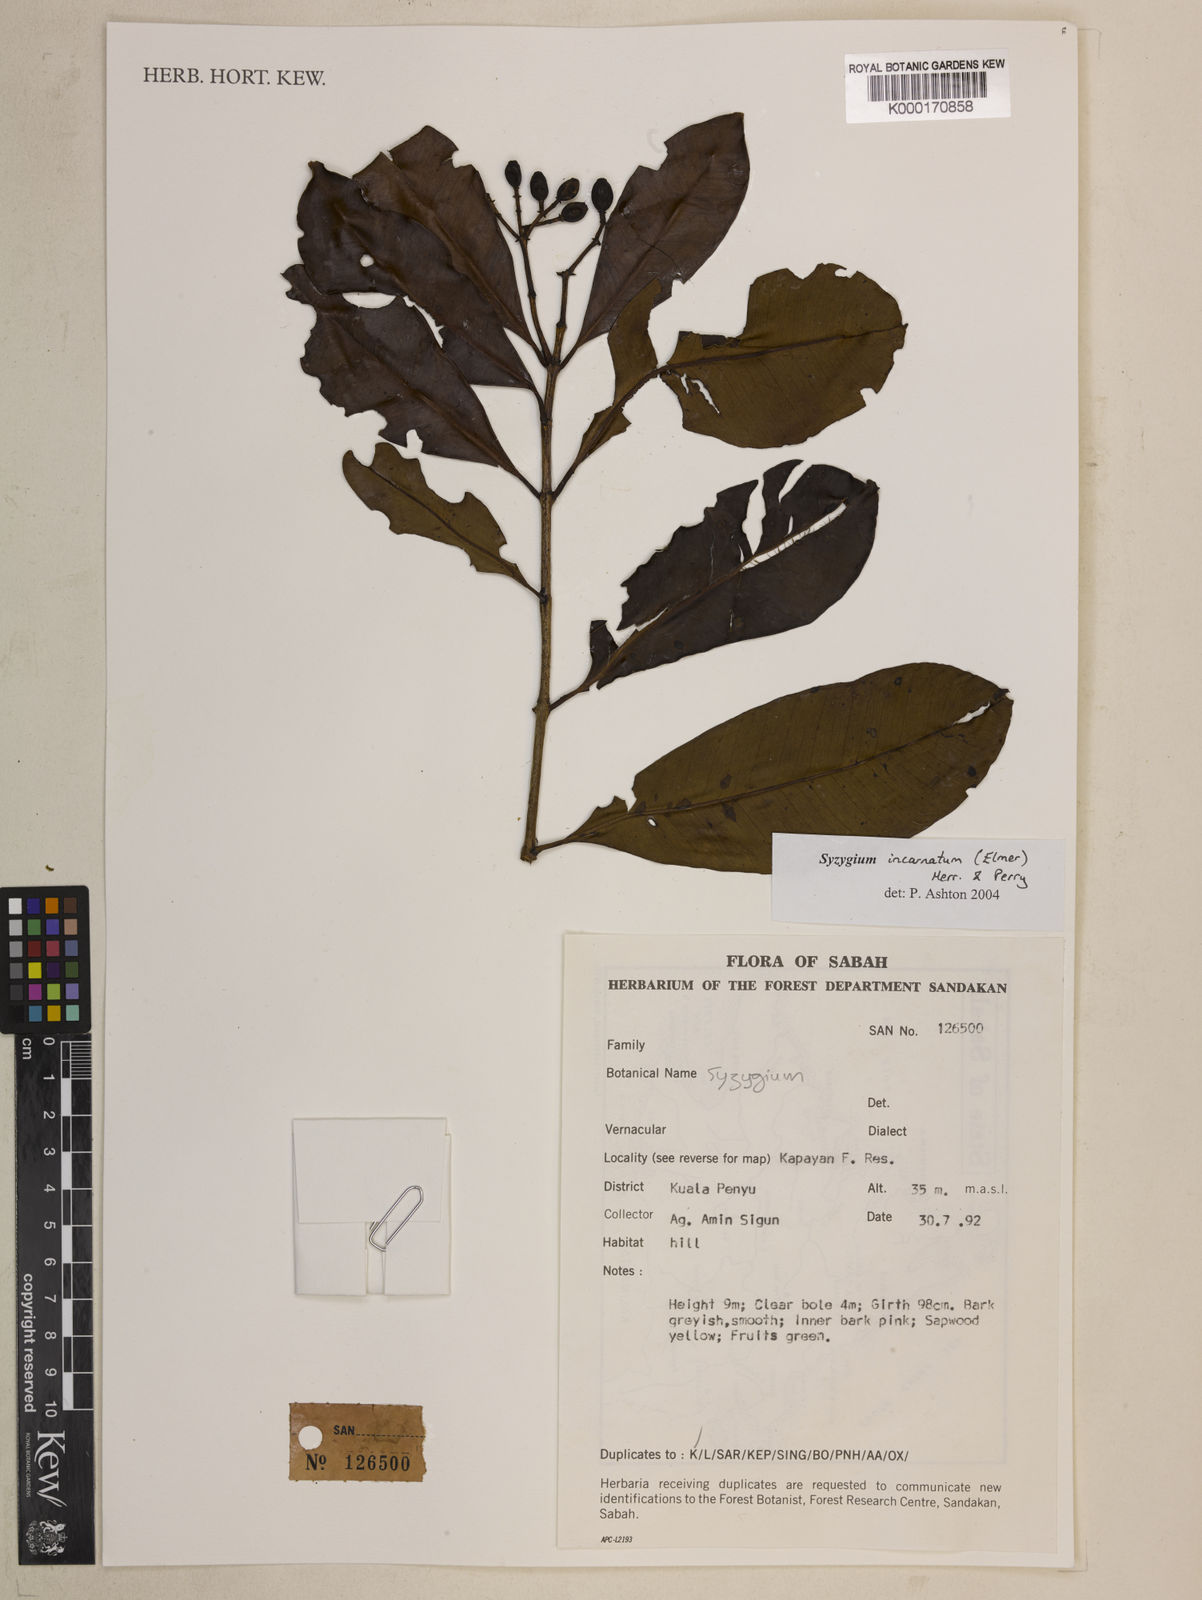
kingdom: Plantae
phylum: Tracheophyta
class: Magnoliopsida
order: Myrtales
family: Myrtaceae
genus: Syzygium
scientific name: Syzygium incarnatum
